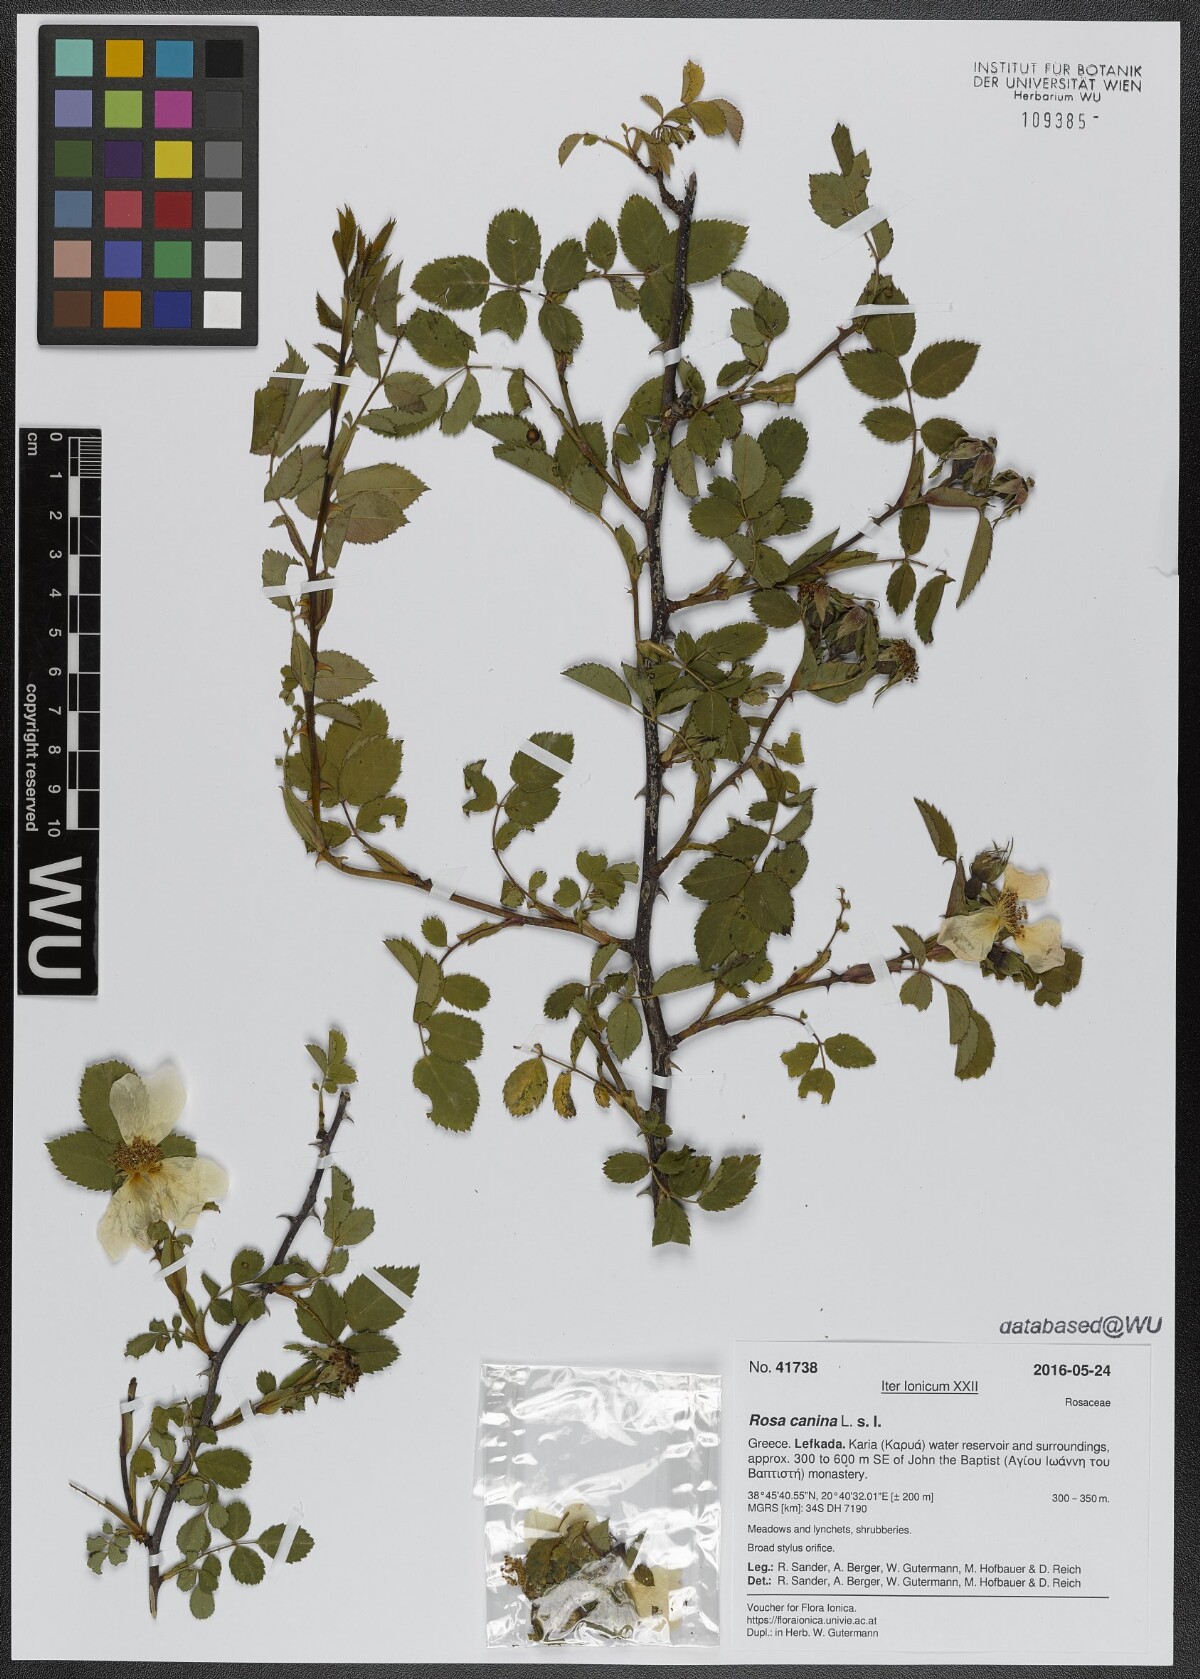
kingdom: Plantae
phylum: Tracheophyta
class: Magnoliopsida
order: Rosales
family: Rosaceae
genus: Rosa
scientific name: Rosa canina
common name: Dog rose
